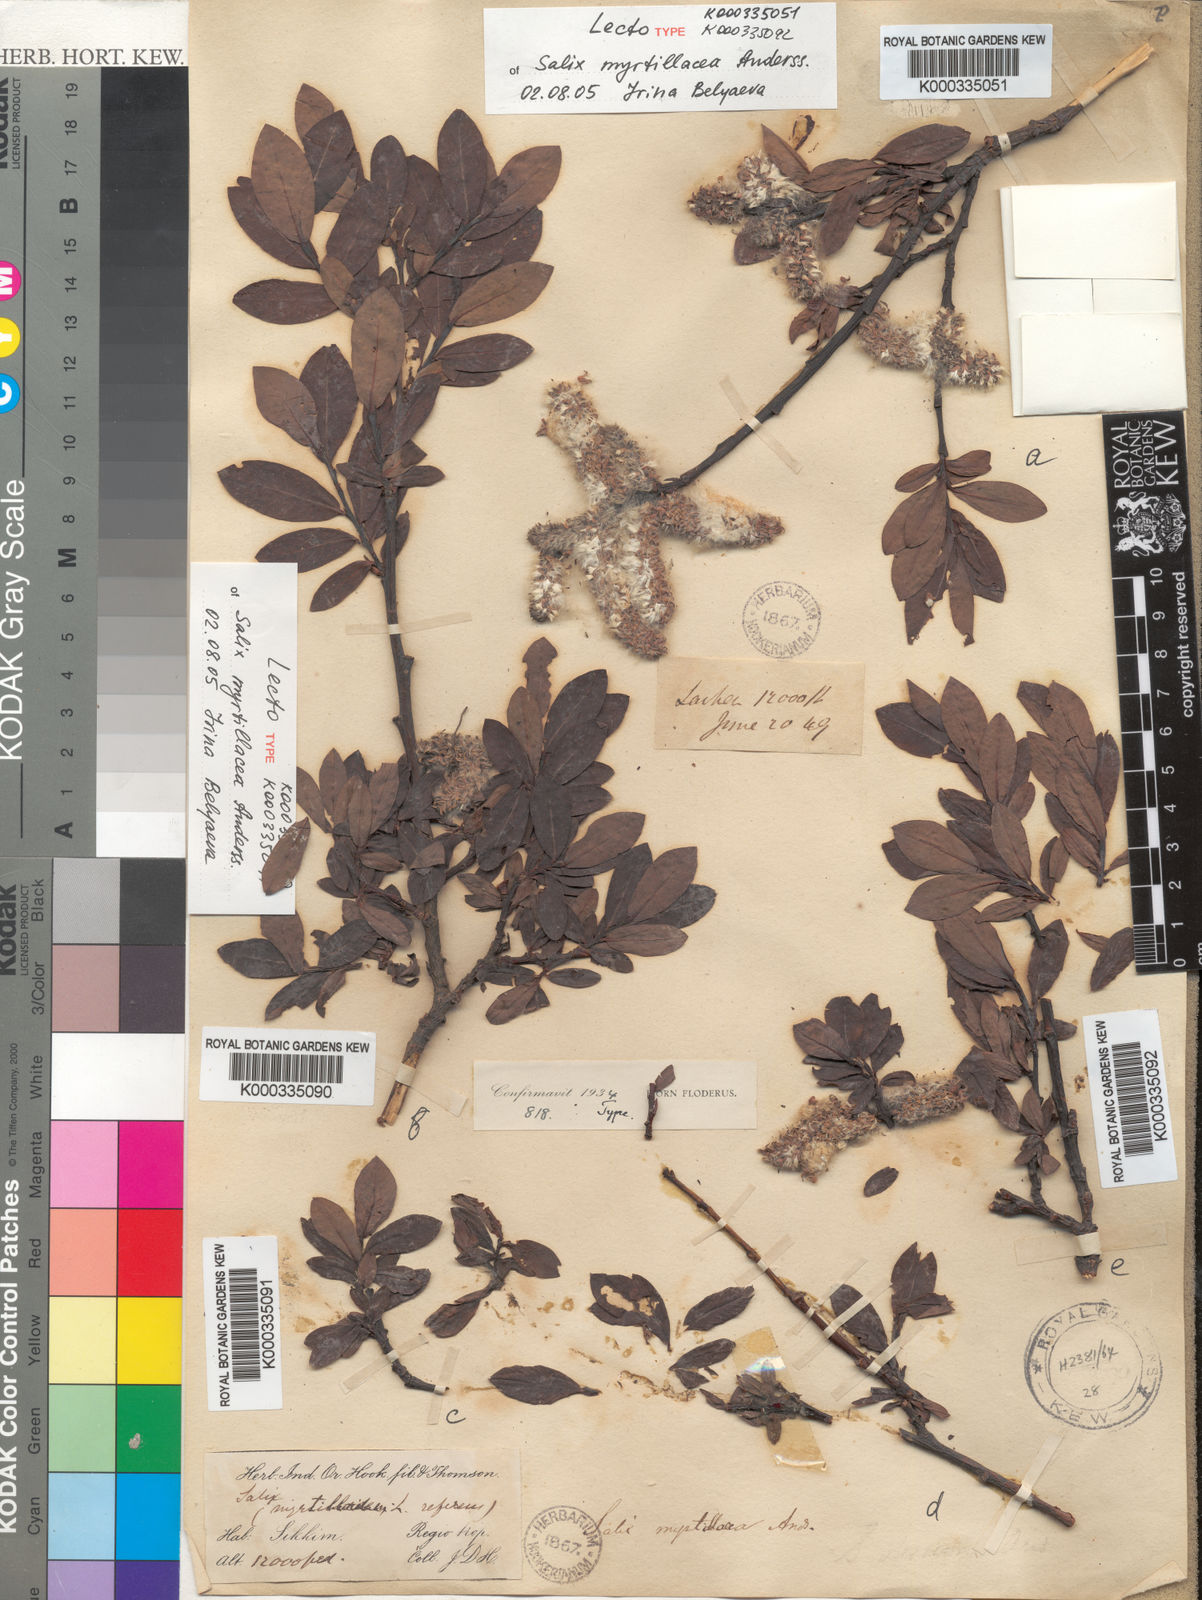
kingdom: Plantae
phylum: Tracheophyta
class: Magnoliopsida
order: Malpighiales
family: Salicaceae
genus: Salix
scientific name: Salix myrtillacea
